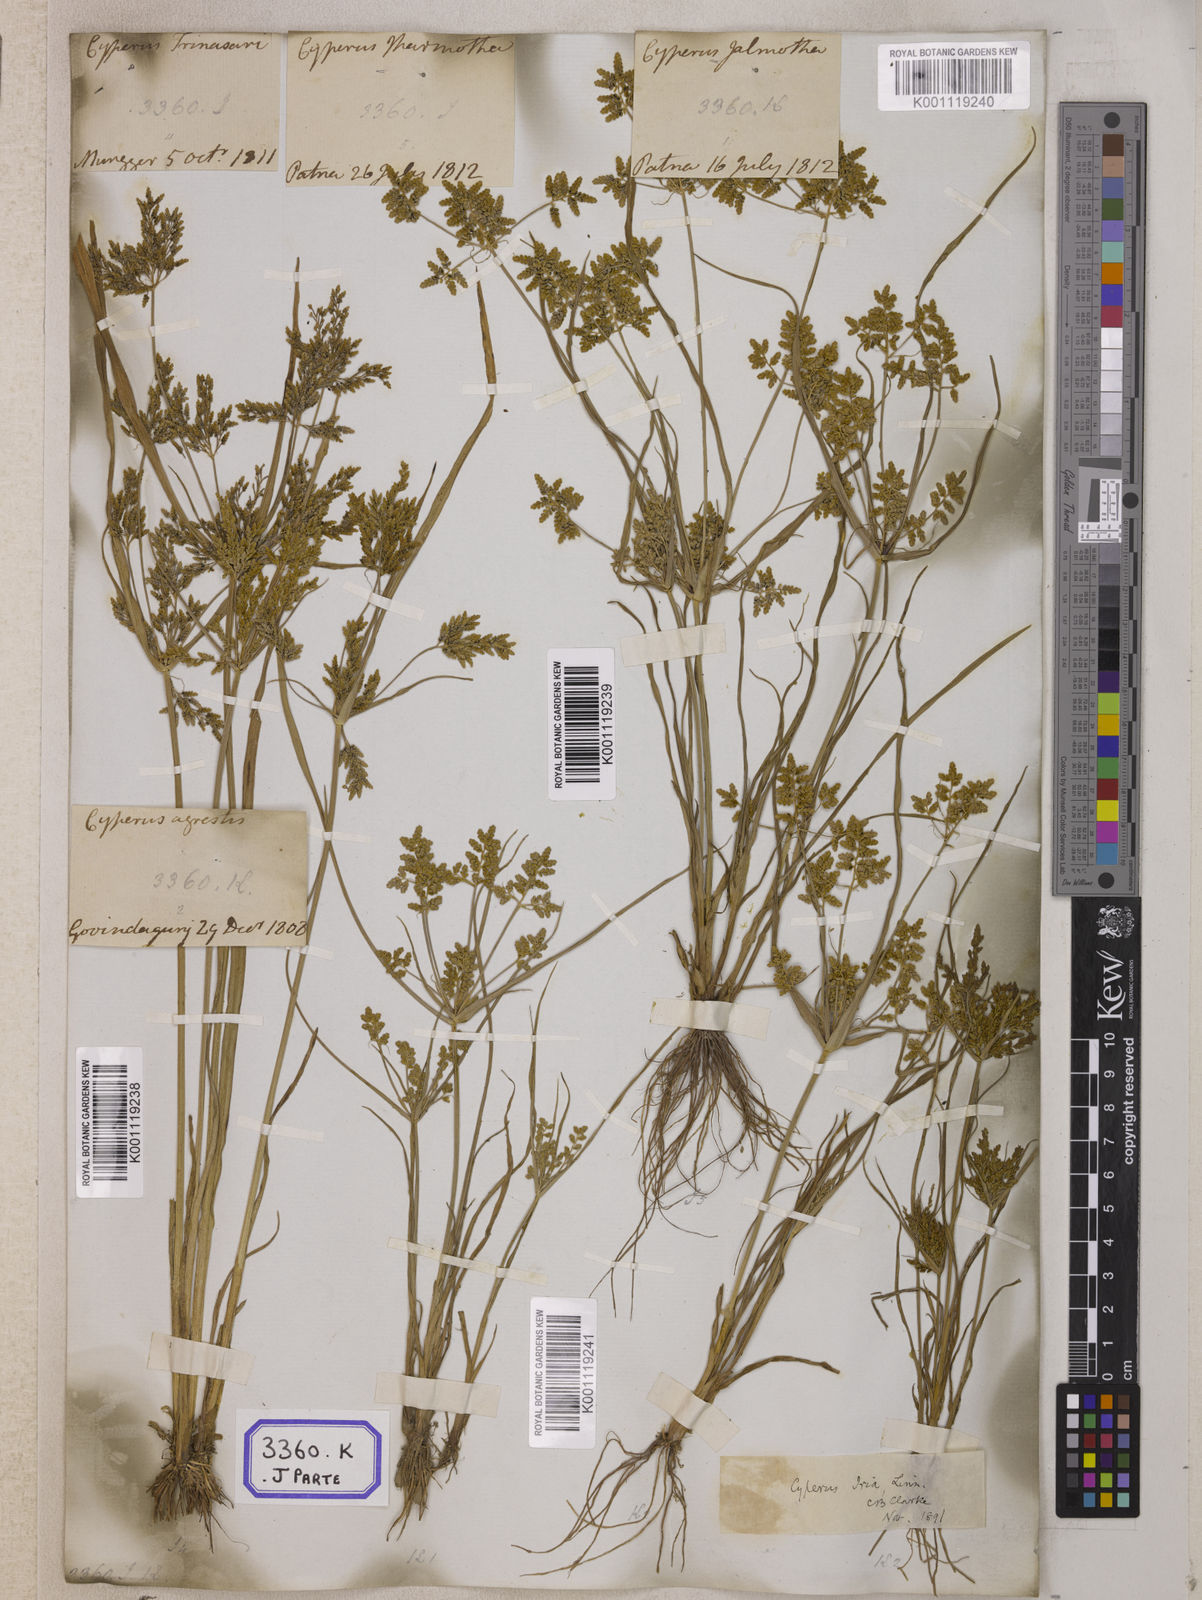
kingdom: Plantae
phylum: Tracheophyta
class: Liliopsida
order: Poales
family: Cyperaceae
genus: Cyperus
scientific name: Cyperus
